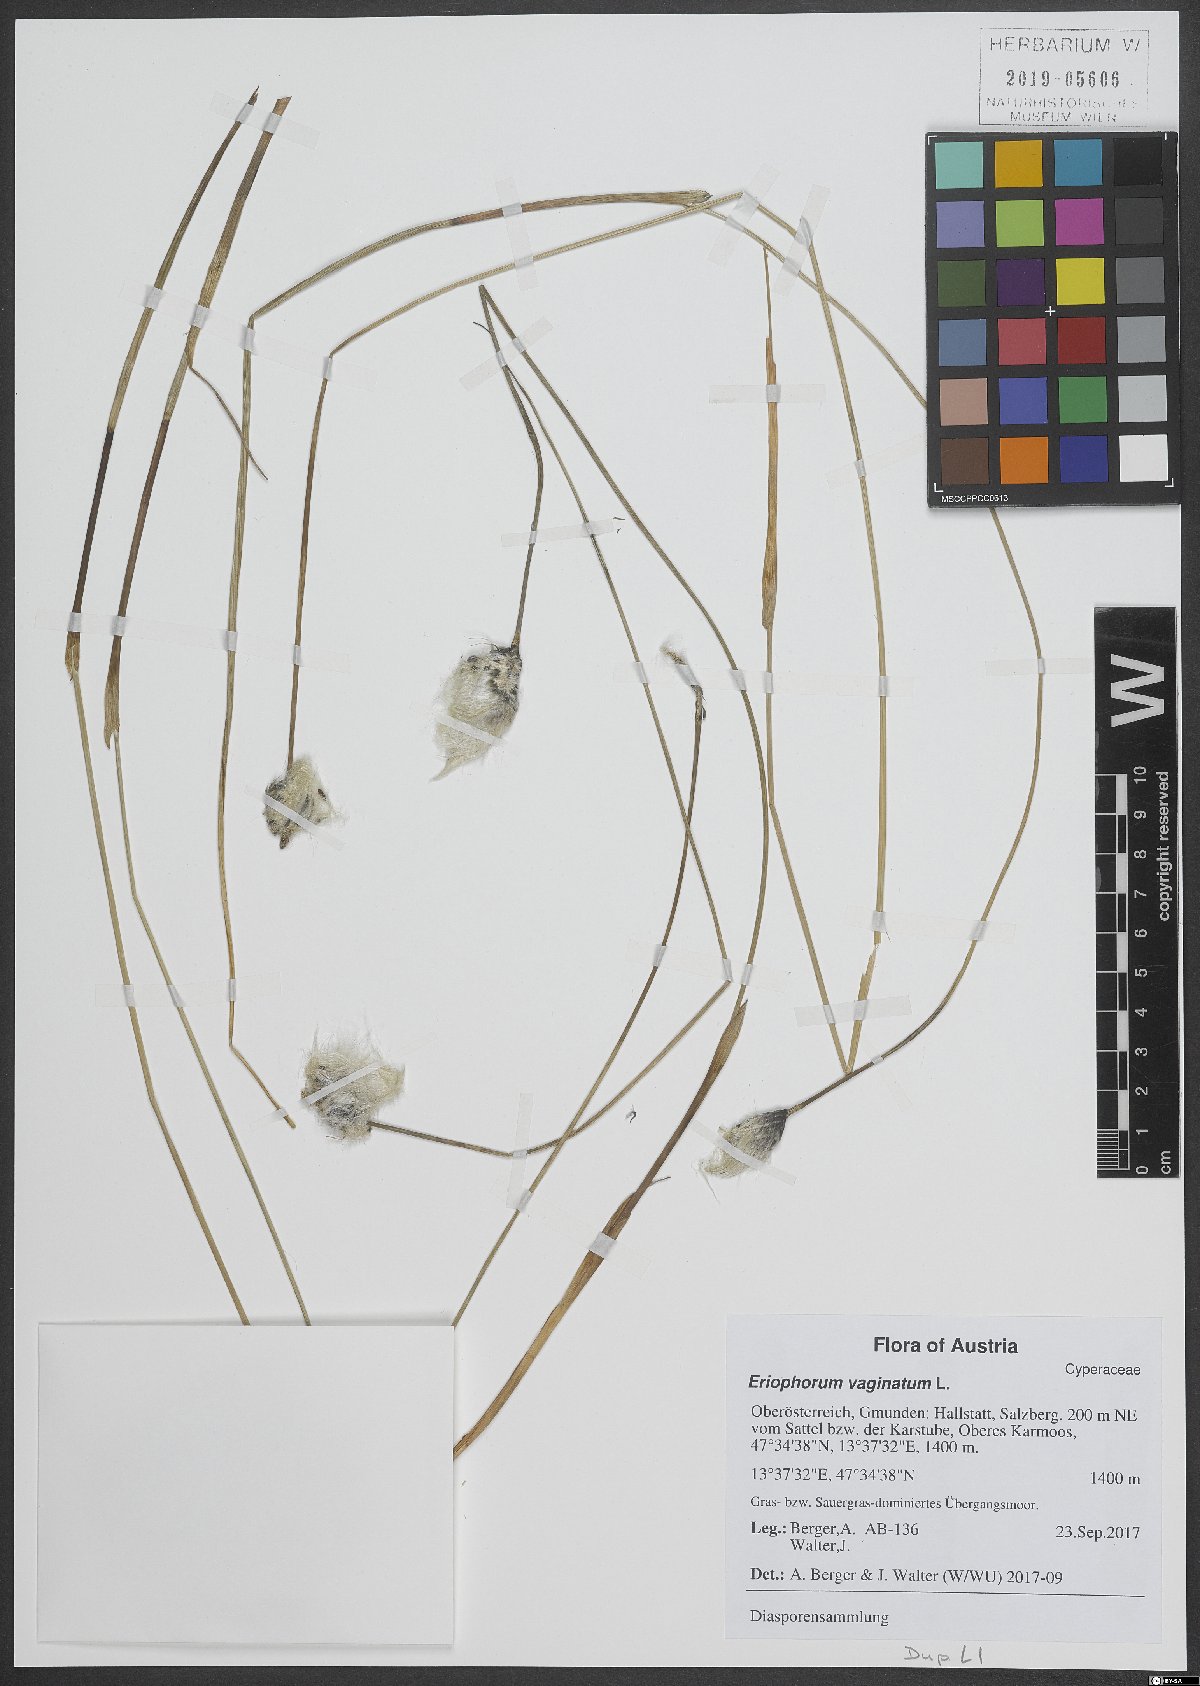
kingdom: Plantae
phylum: Tracheophyta
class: Liliopsida
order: Poales
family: Cyperaceae
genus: Eriophorum
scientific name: Eriophorum vaginatum
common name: Hare's-tail cottongrass
